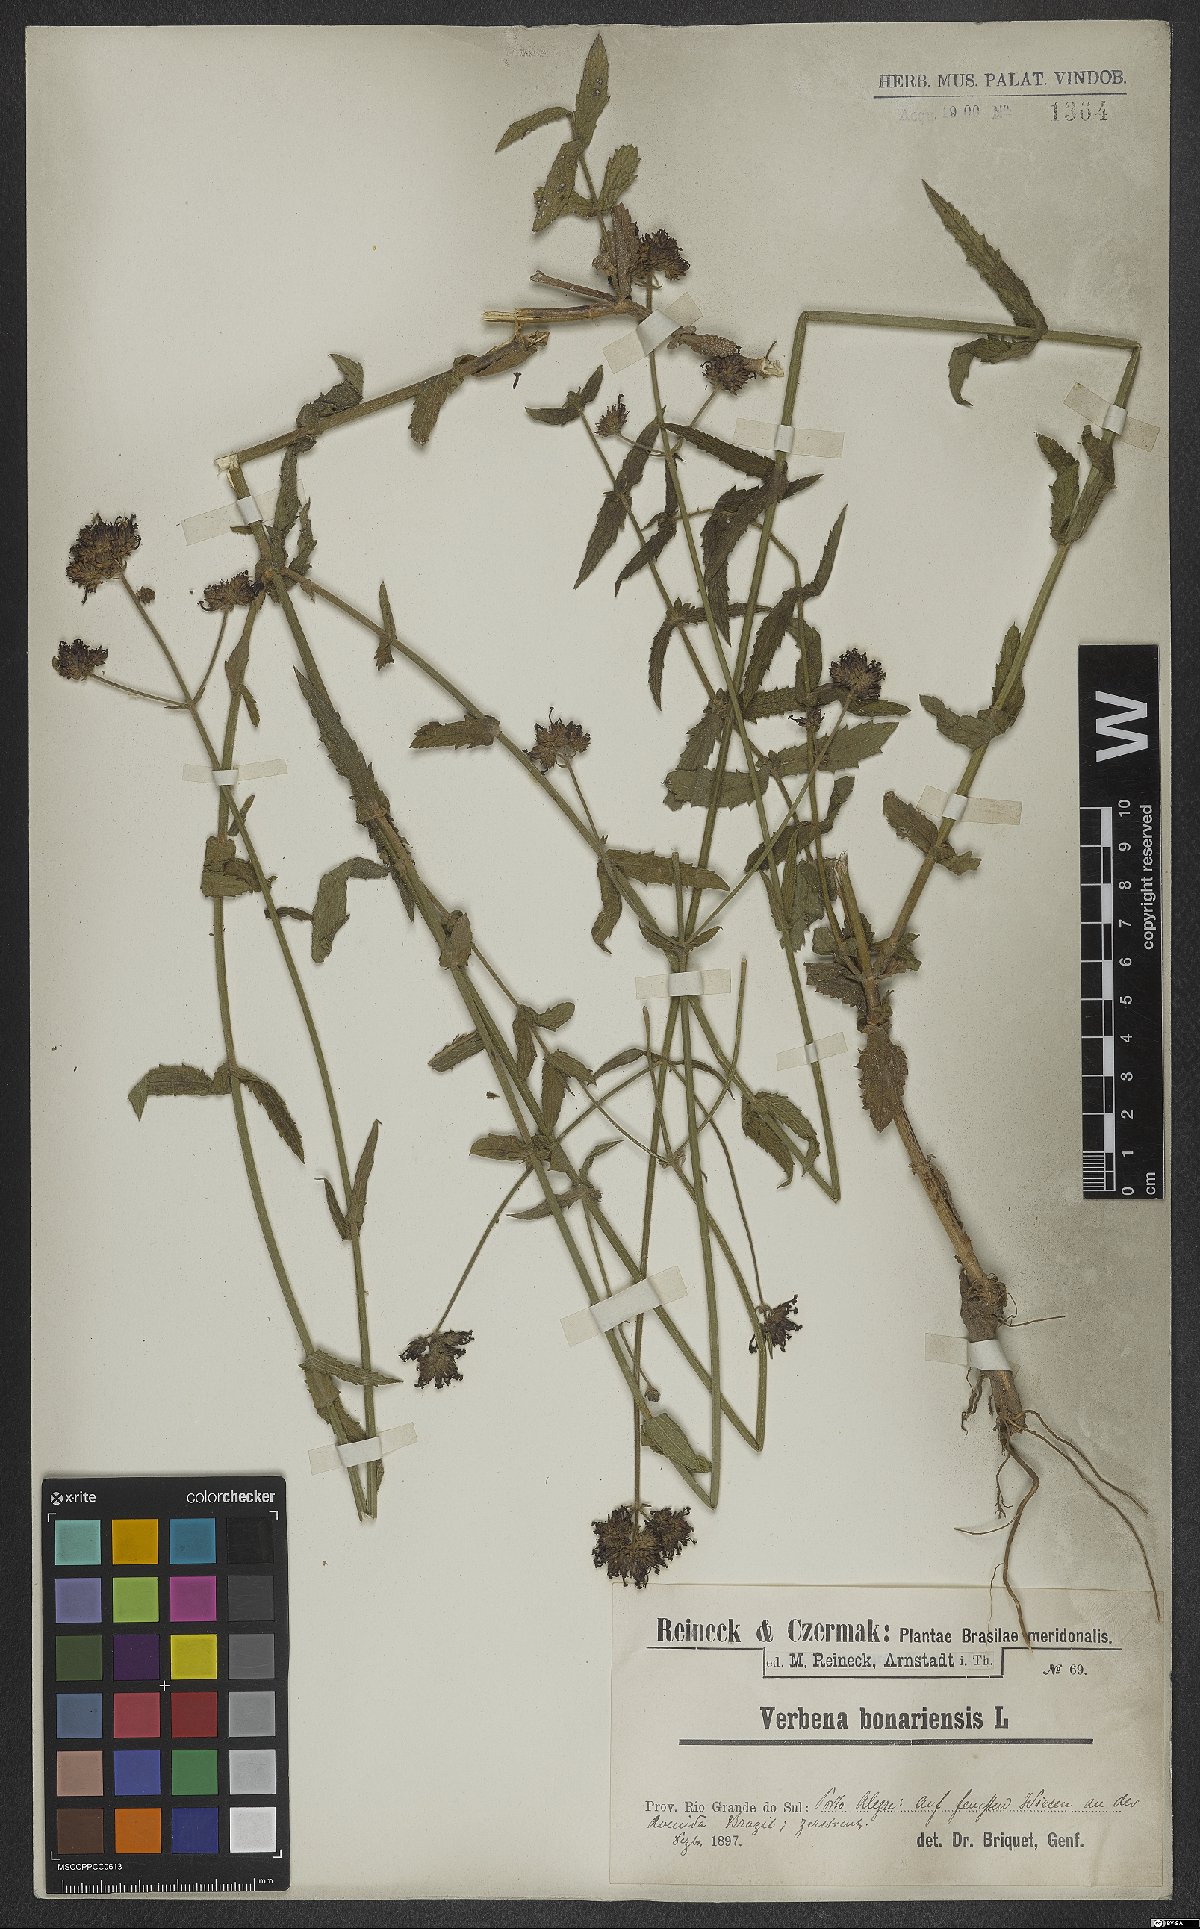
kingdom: Plantae
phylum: Tracheophyta
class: Magnoliopsida
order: Lamiales
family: Verbenaceae
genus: Verbena
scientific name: Verbena bonariensis
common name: Purpletop vervain
